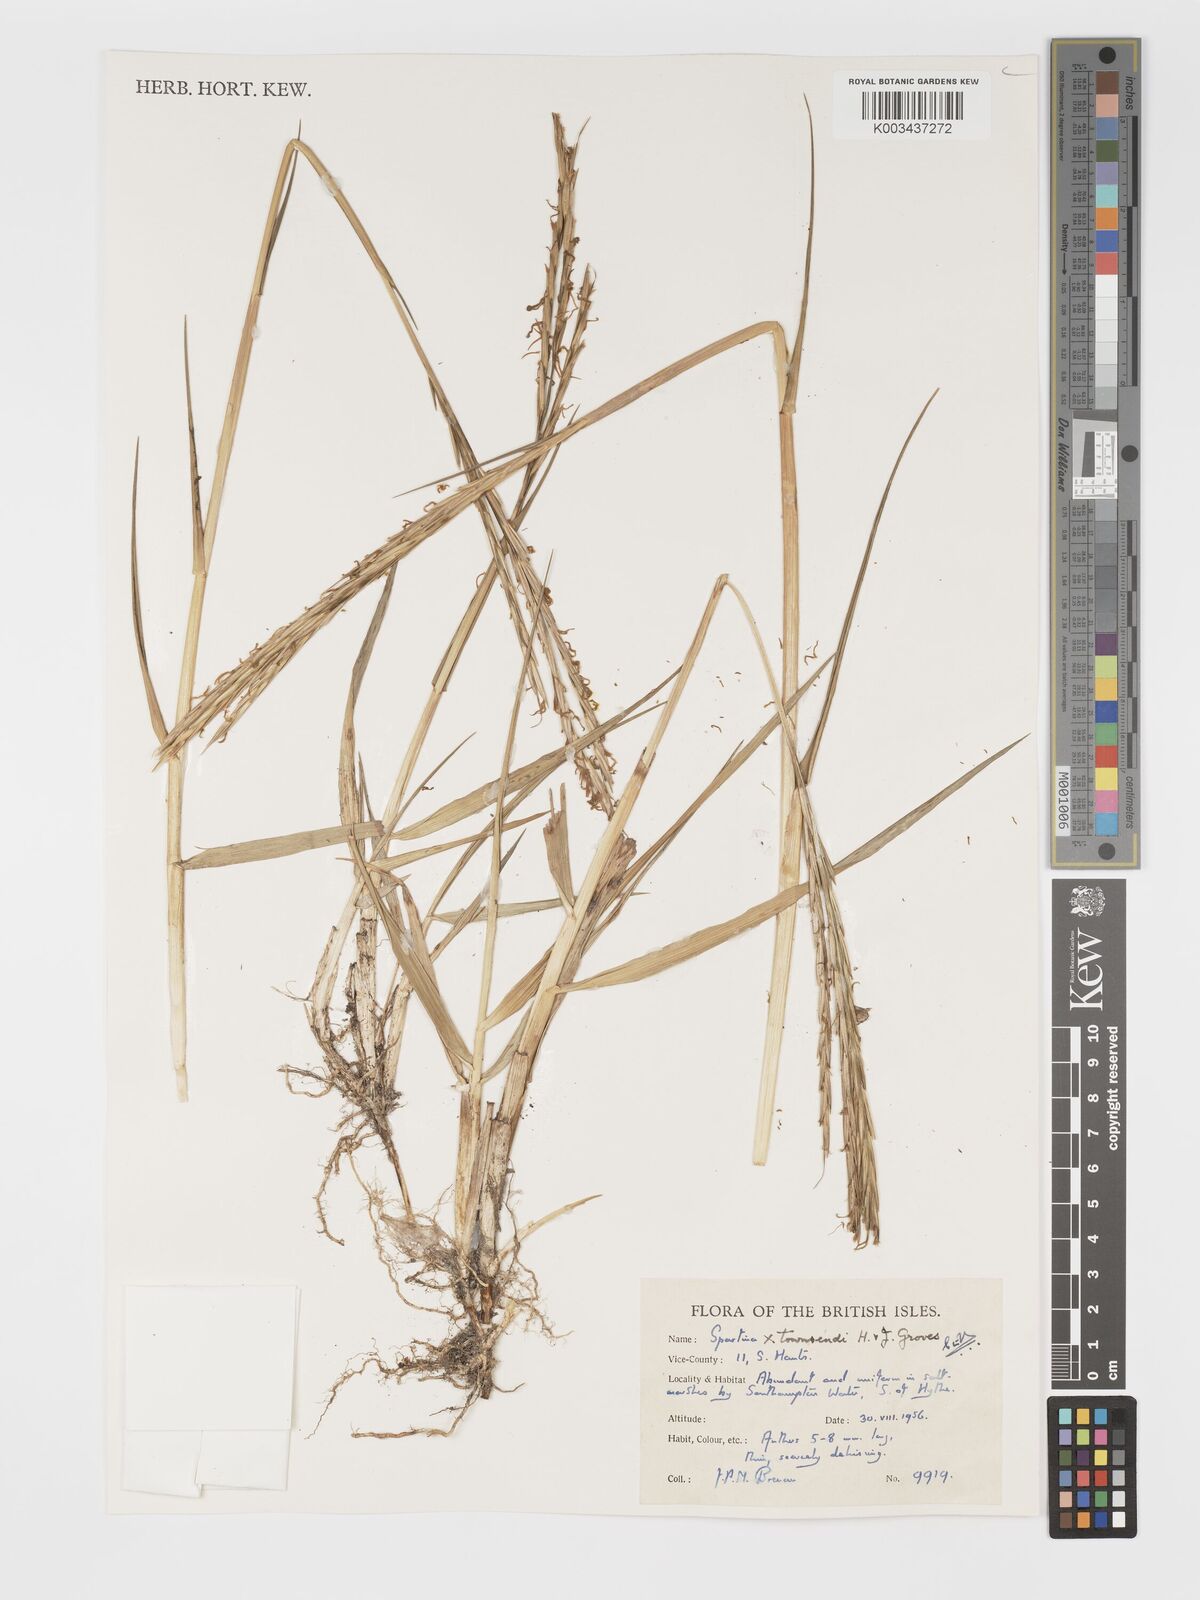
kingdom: Plantae
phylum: Tracheophyta
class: Liliopsida
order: Poales
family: Poaceae
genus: Sporobolus
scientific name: Sporobolus townsendii
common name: Townsend's cordgrass
